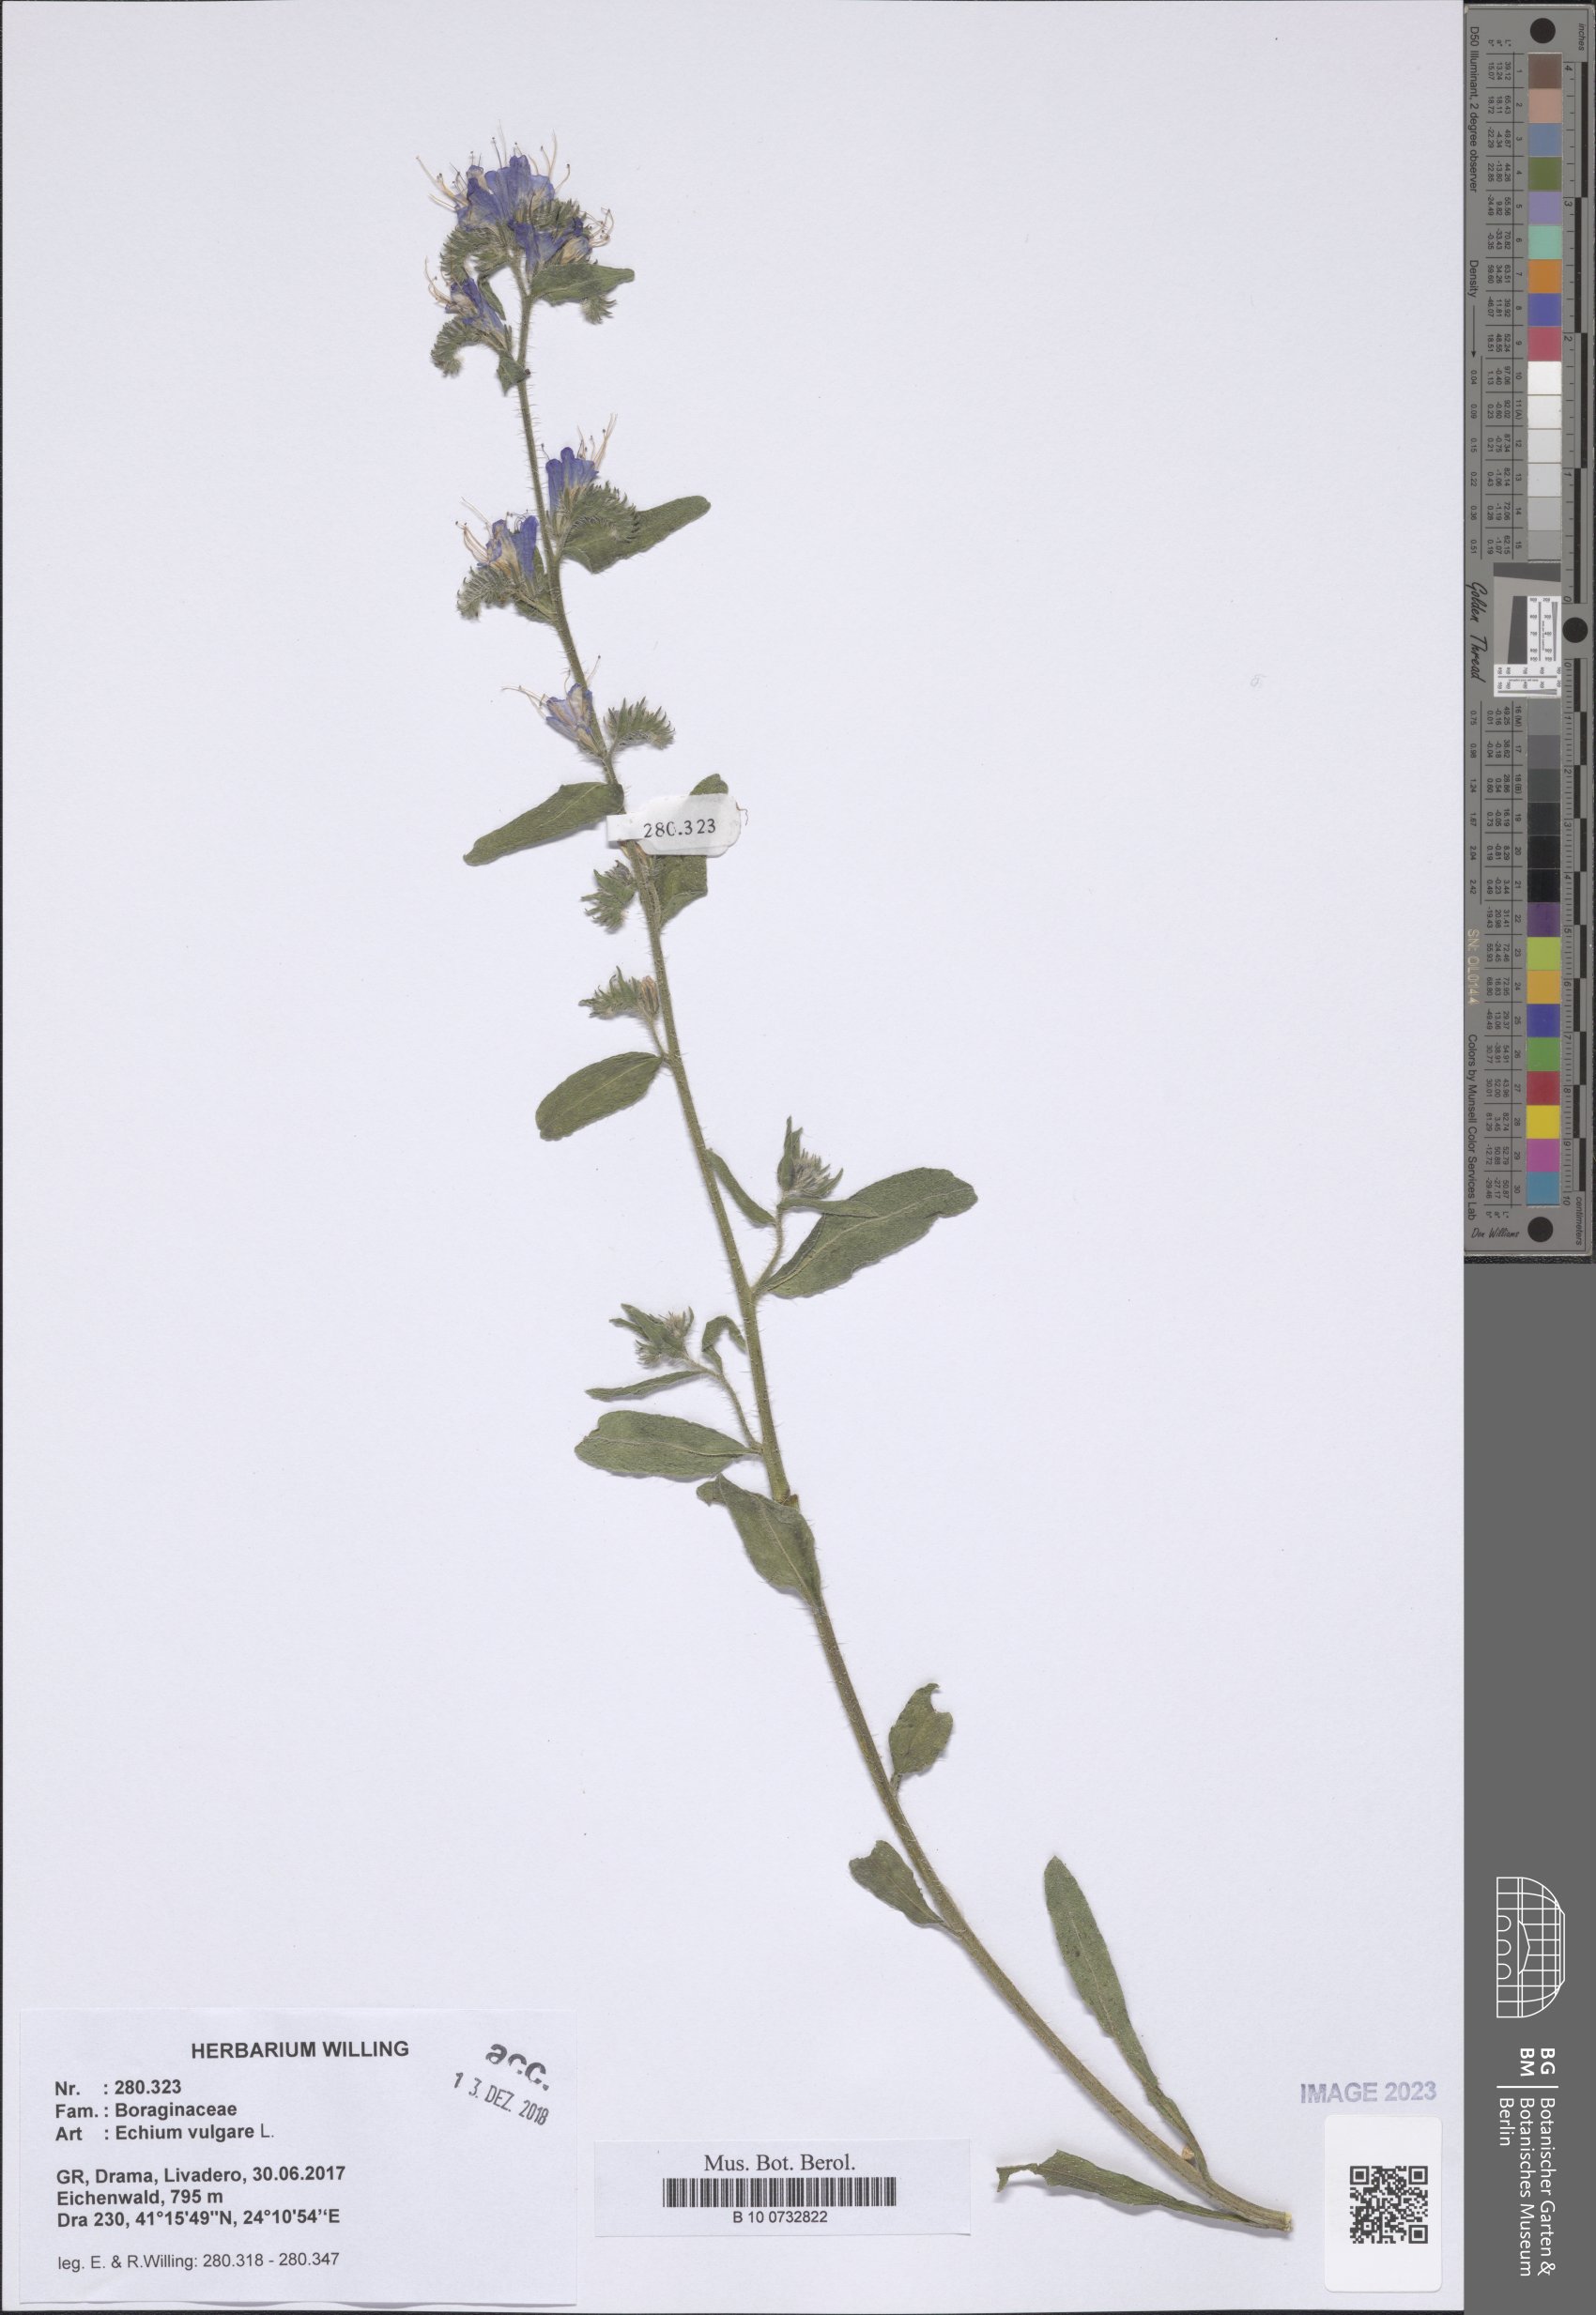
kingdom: Plantae
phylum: Tracheophyta
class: Magnoliopsida
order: Boraginales
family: Boraginaceae
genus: Echium
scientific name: Echium vulgare
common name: Common viper's bugloss
